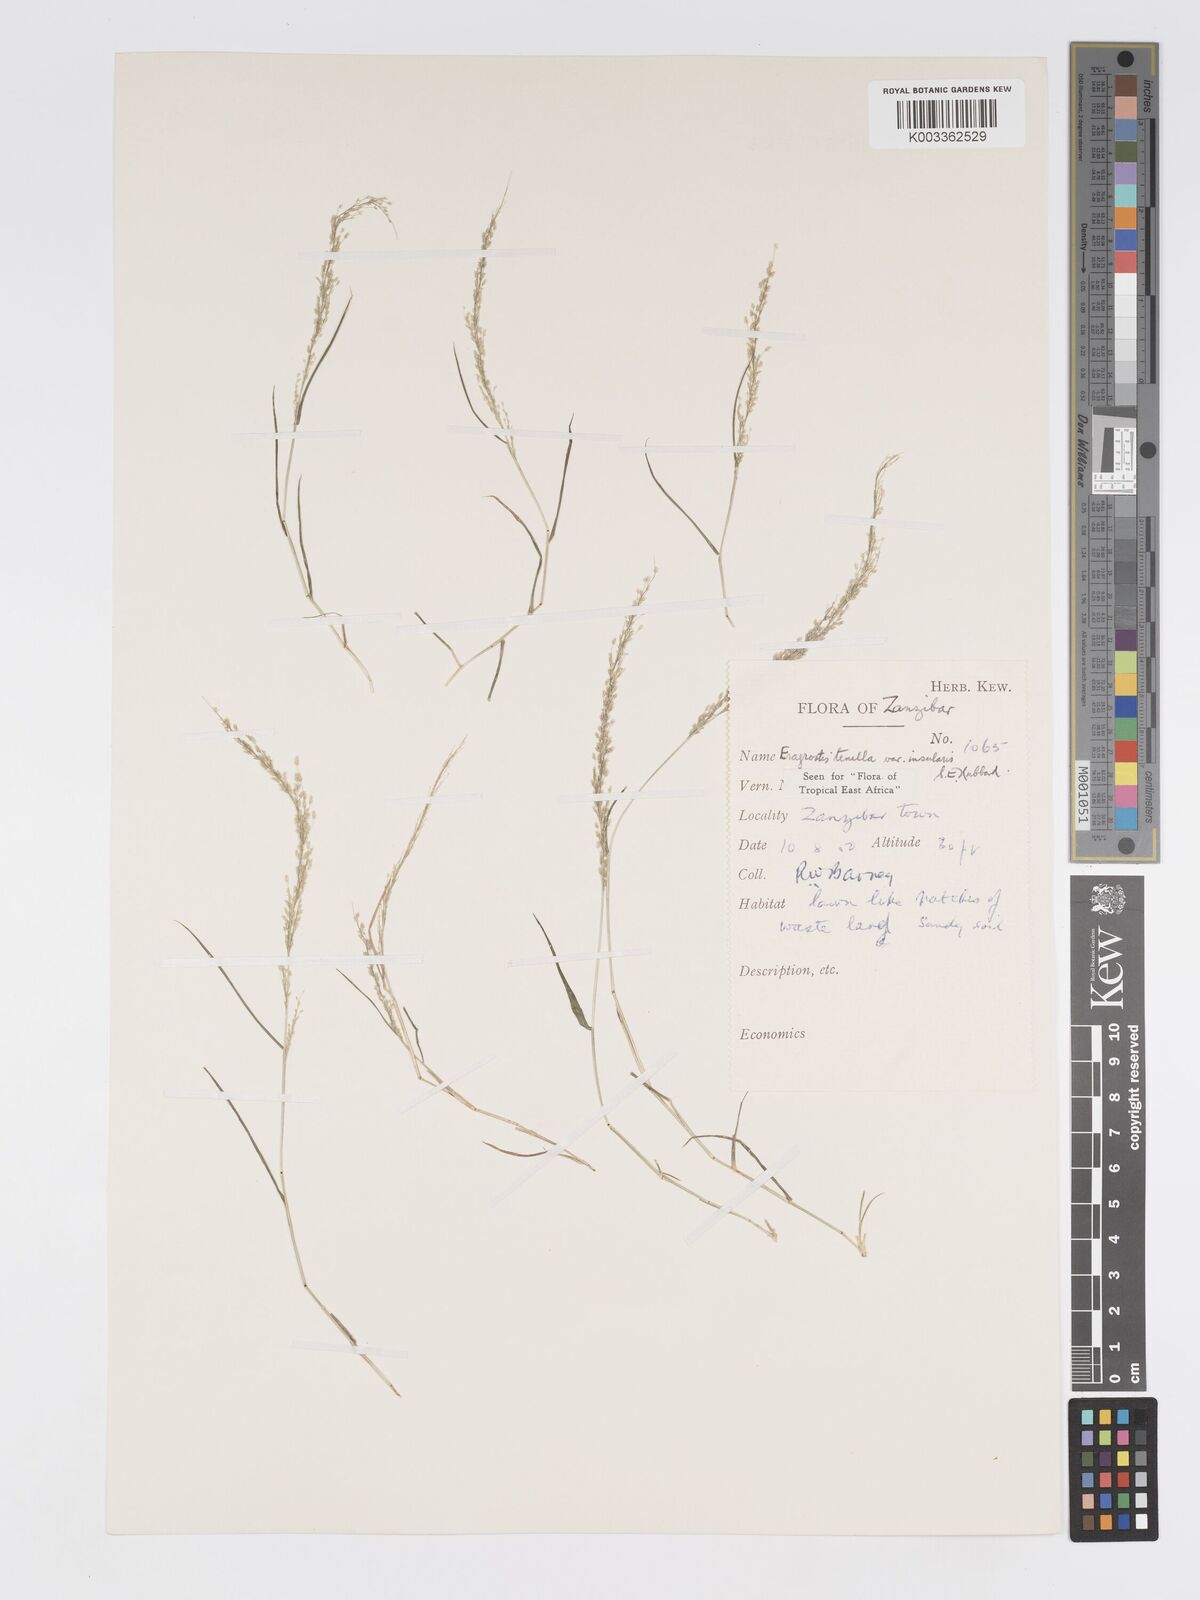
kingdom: Plantae
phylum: Tracheophyta
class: Liliopsida
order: Poales
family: Poaceae
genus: Eragrostis
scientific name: Eragrostis tenella
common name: Japanese lovegrass
